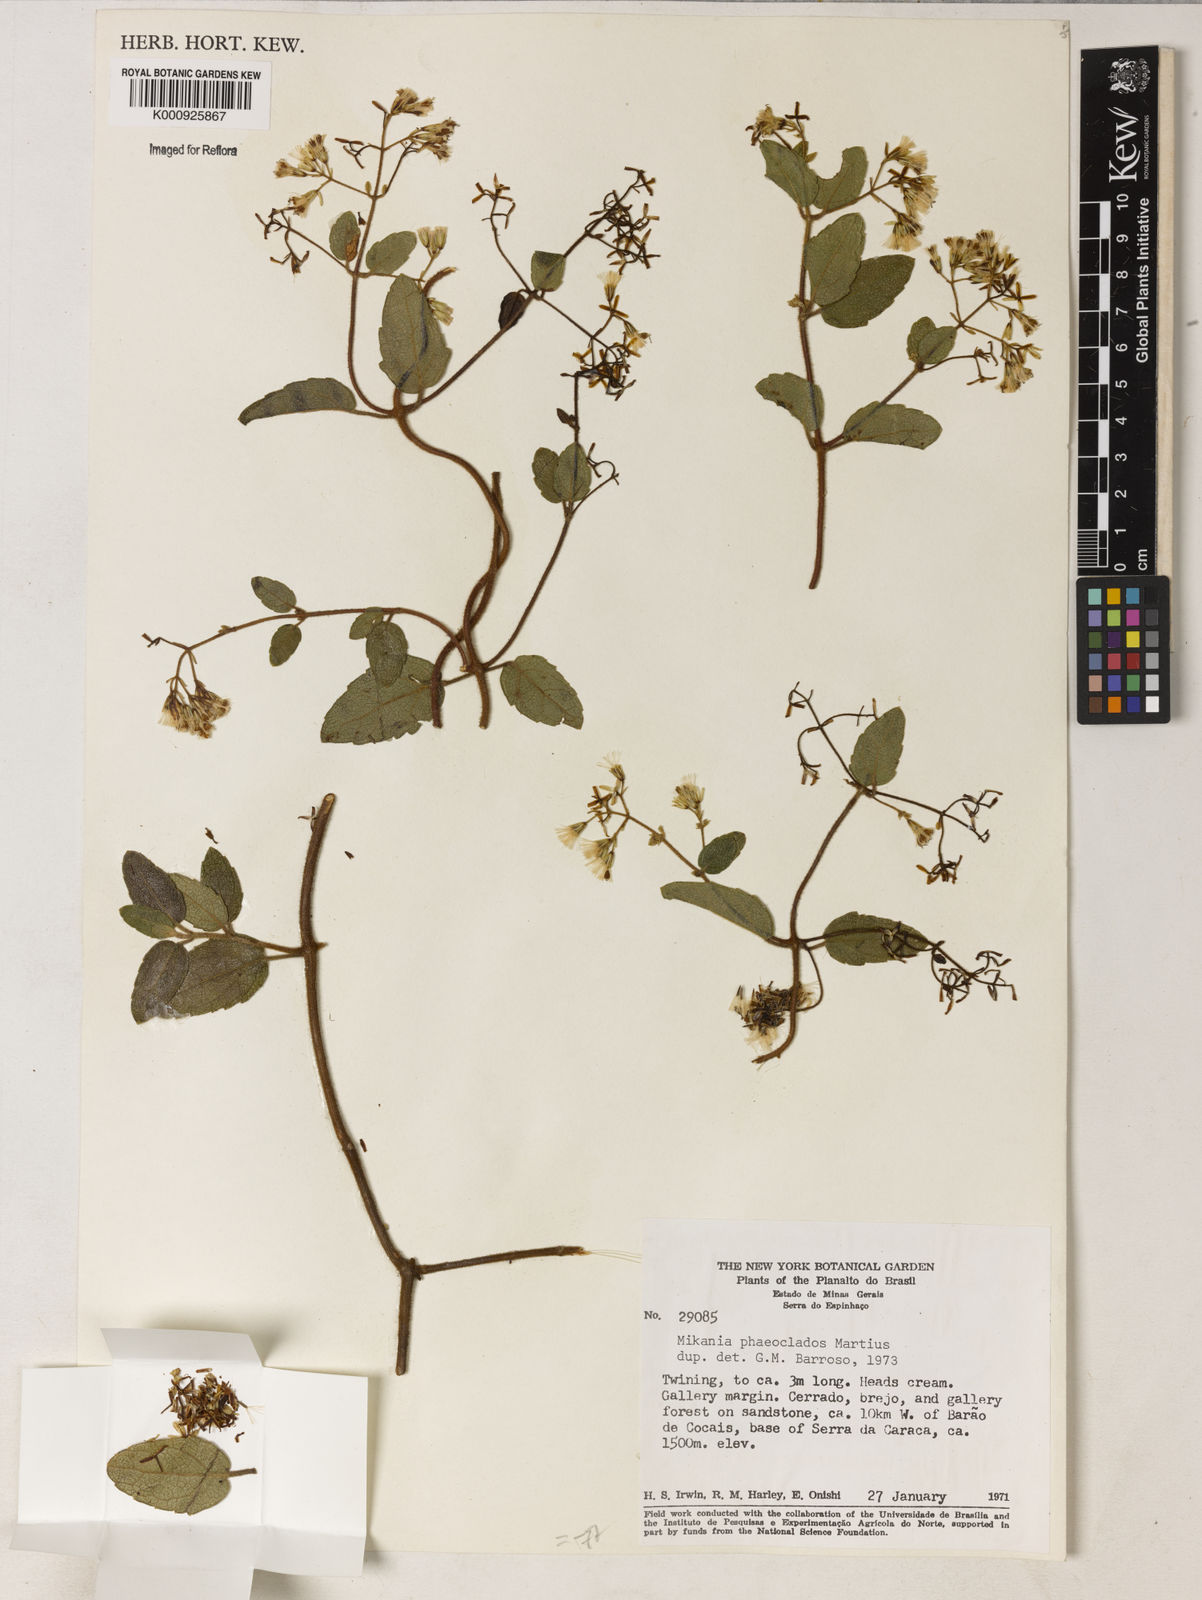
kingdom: Plantae
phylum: Tracheophyta
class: Magnoliopsida
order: Asterales
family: Asteraceae
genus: Mikania
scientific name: Mikania
